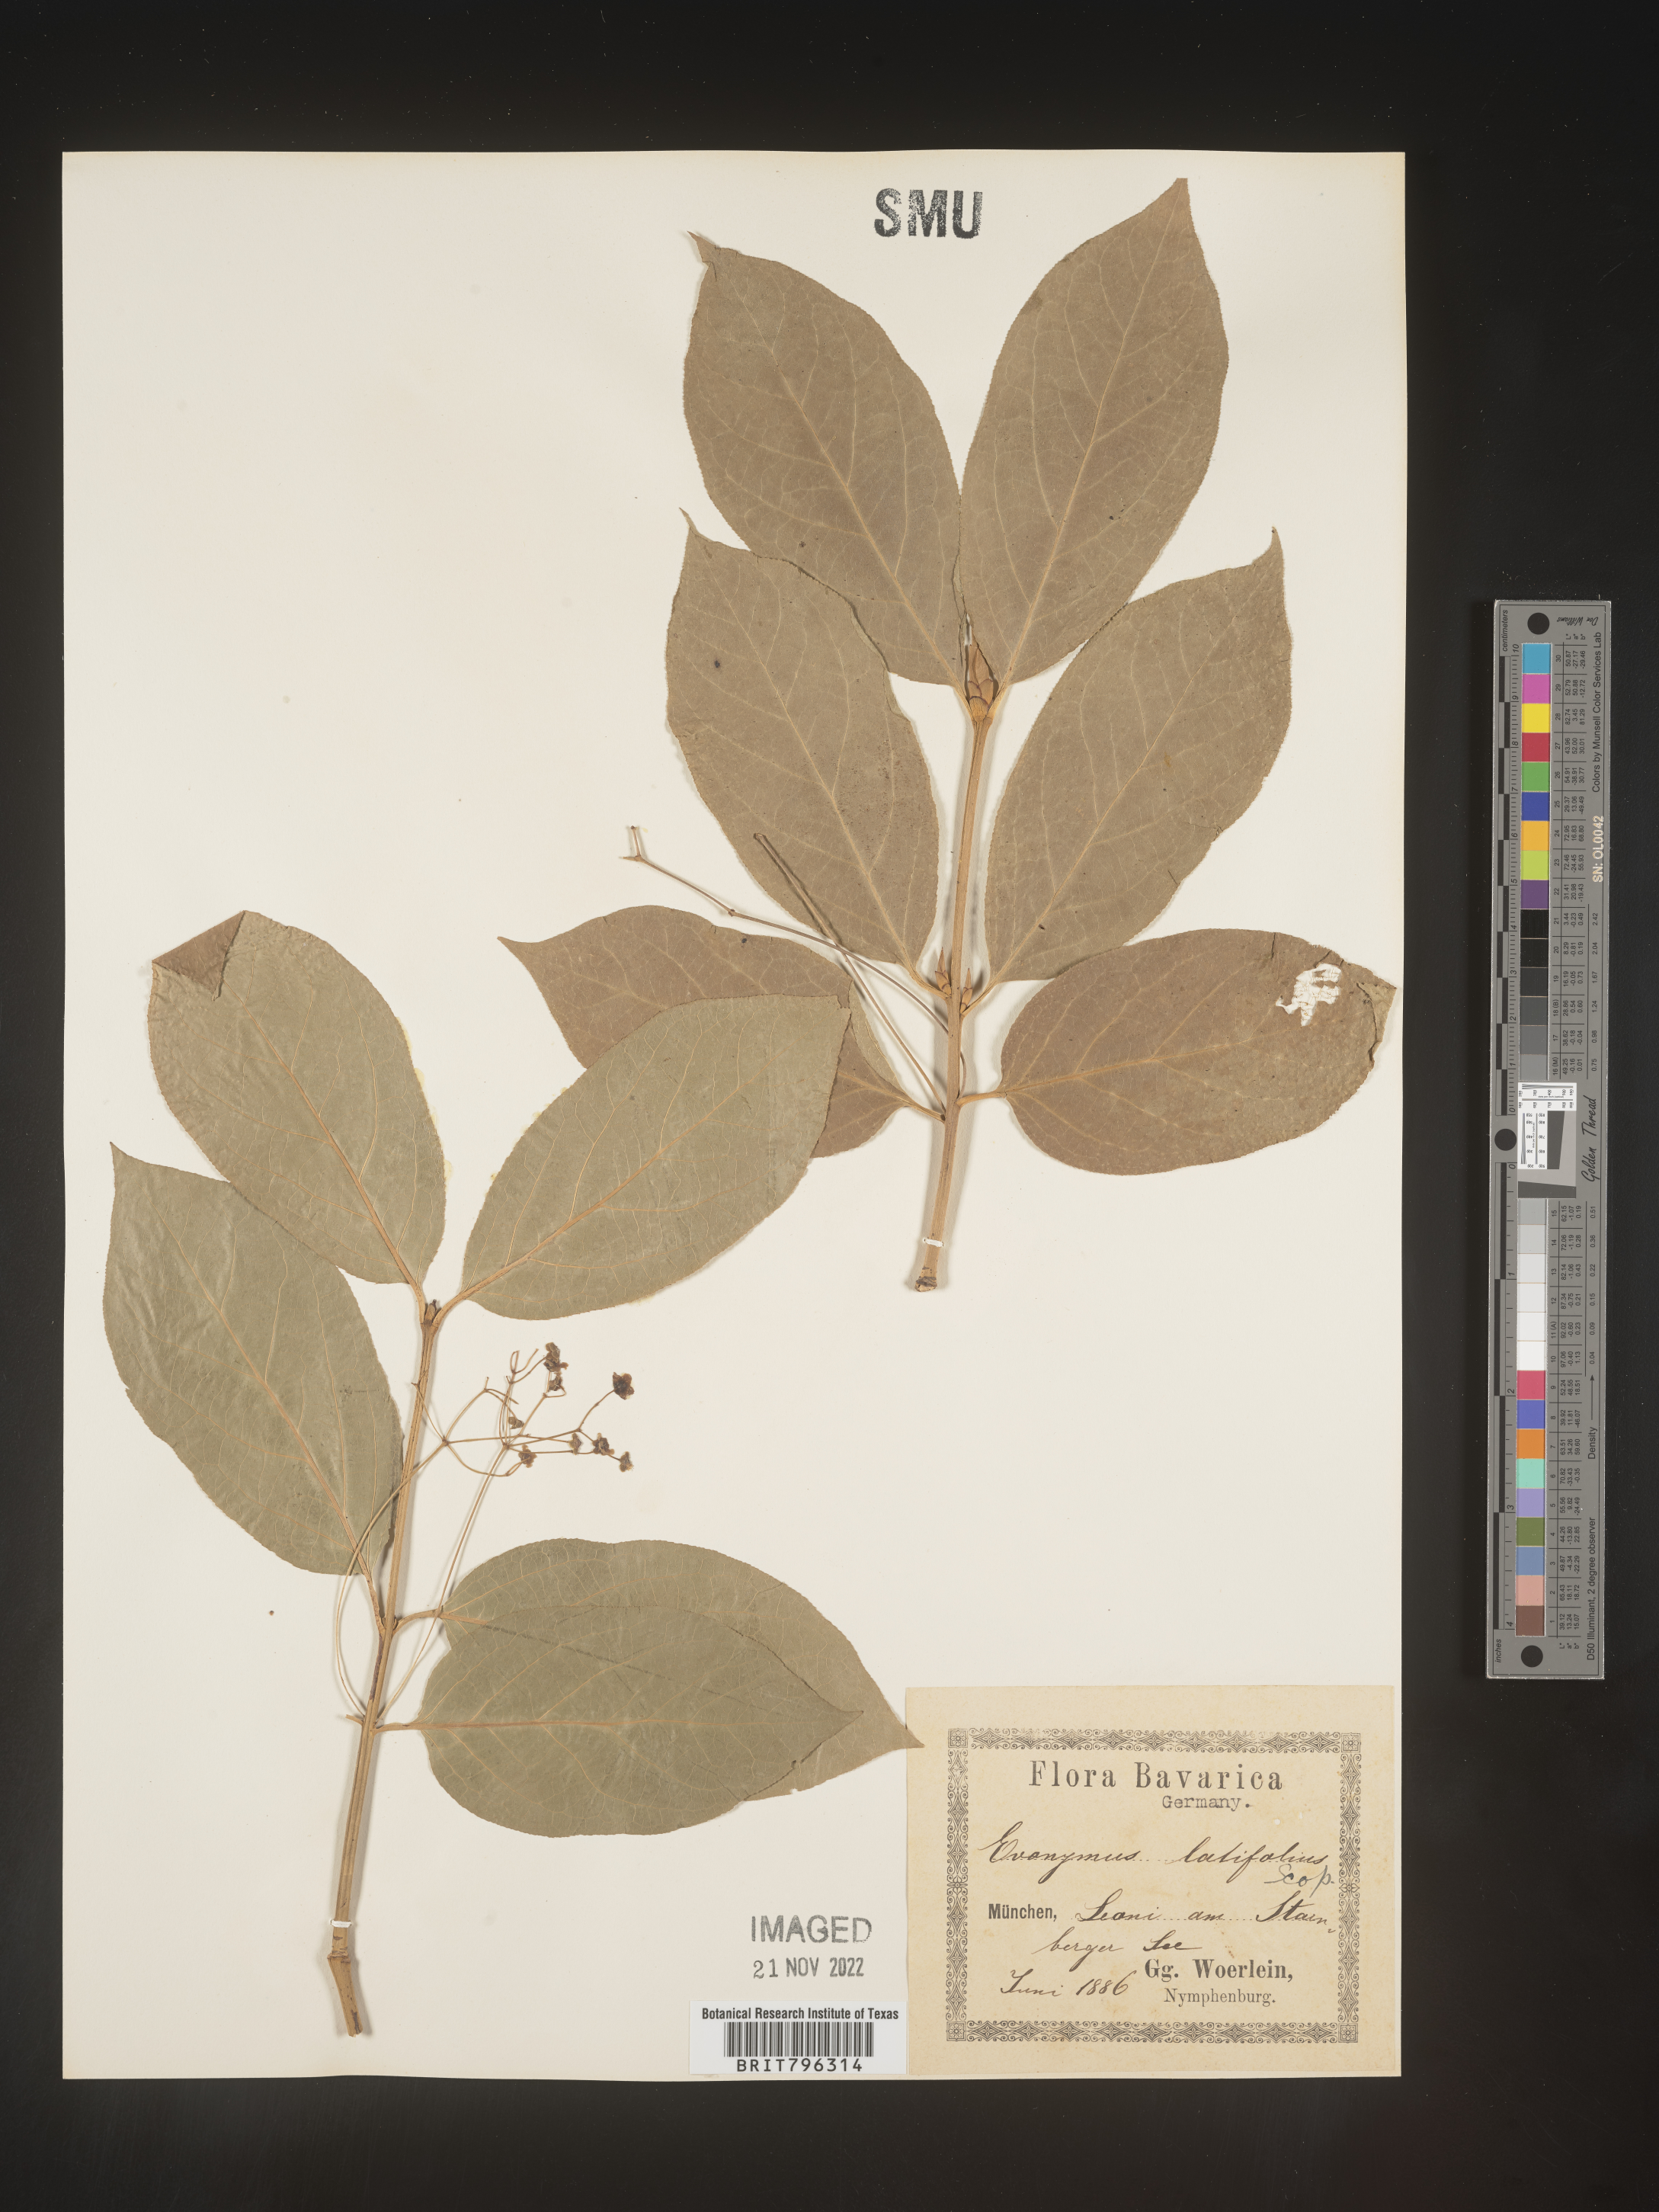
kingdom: Plantae
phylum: Tracheophyta
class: Magnoliopsida
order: Celastrales
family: Celastraceae
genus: Euonymus
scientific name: Euonymus
